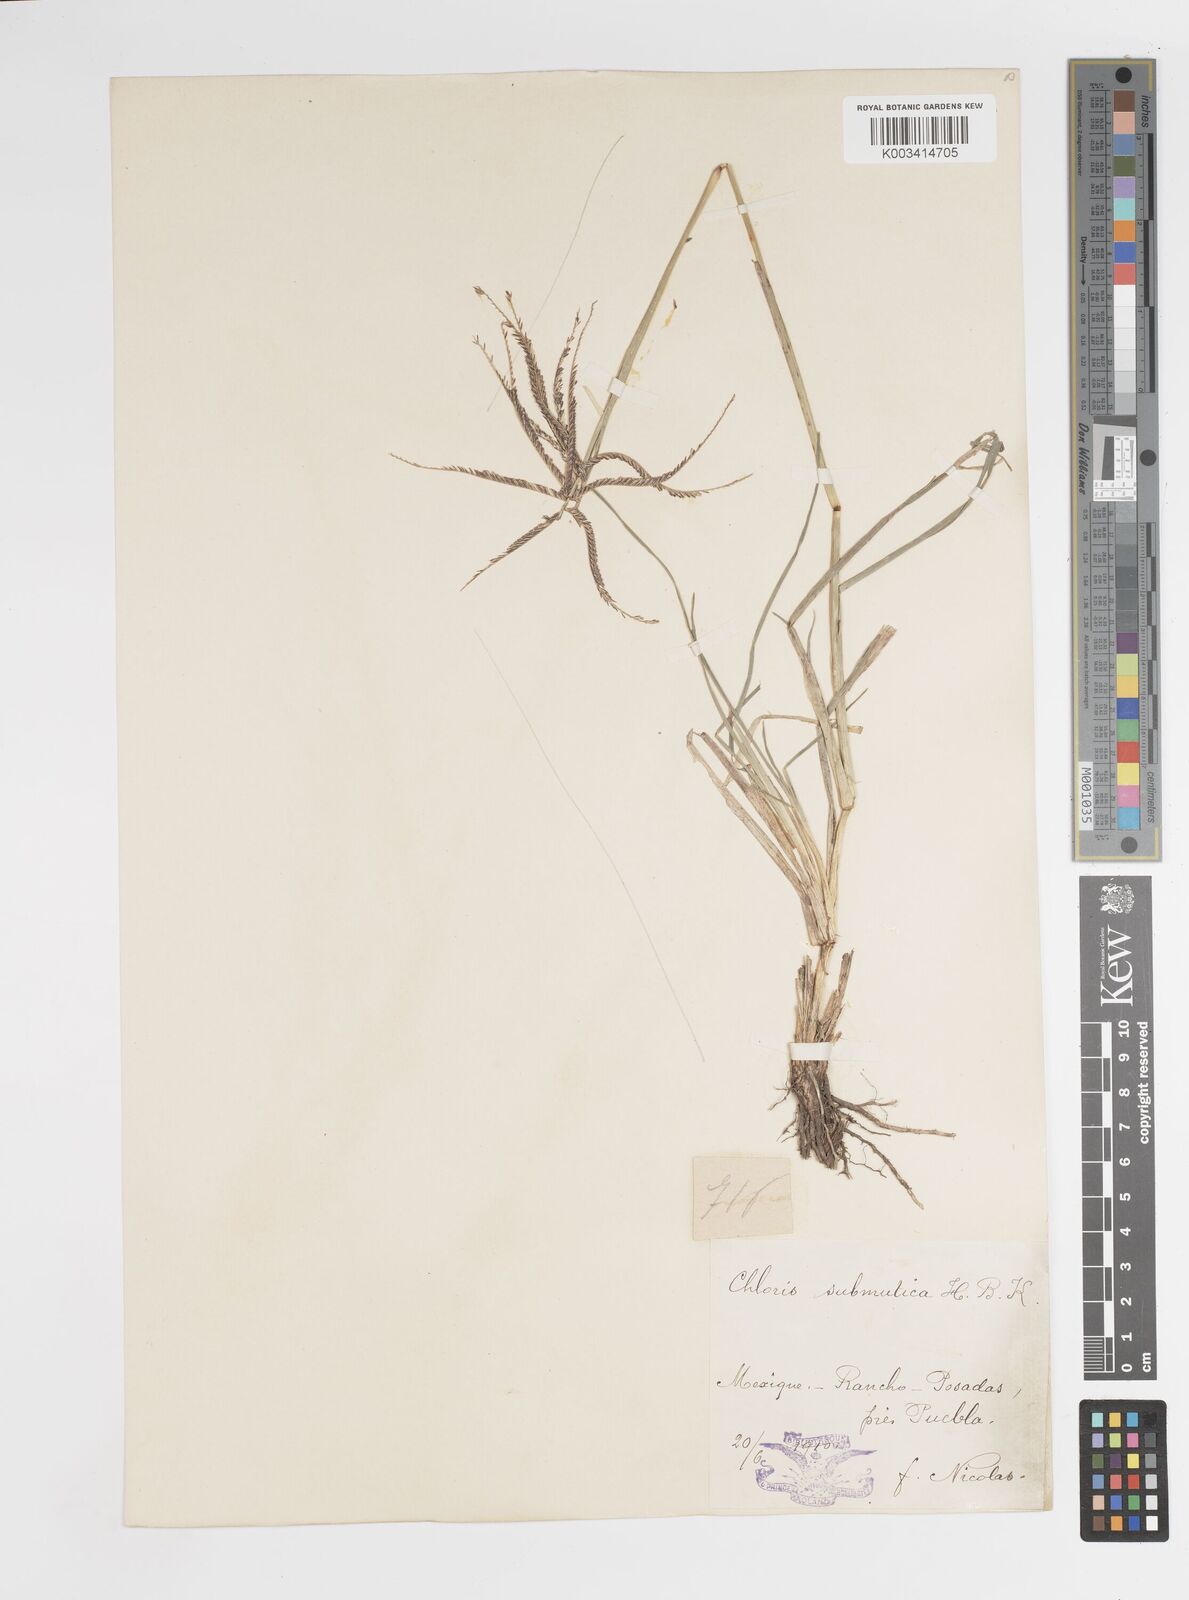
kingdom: Plantae
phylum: Tracheophyta
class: Liliopsida
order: Poales
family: Poaceae
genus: Chloris
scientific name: Chloris submutica
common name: Mexican windmill grass
